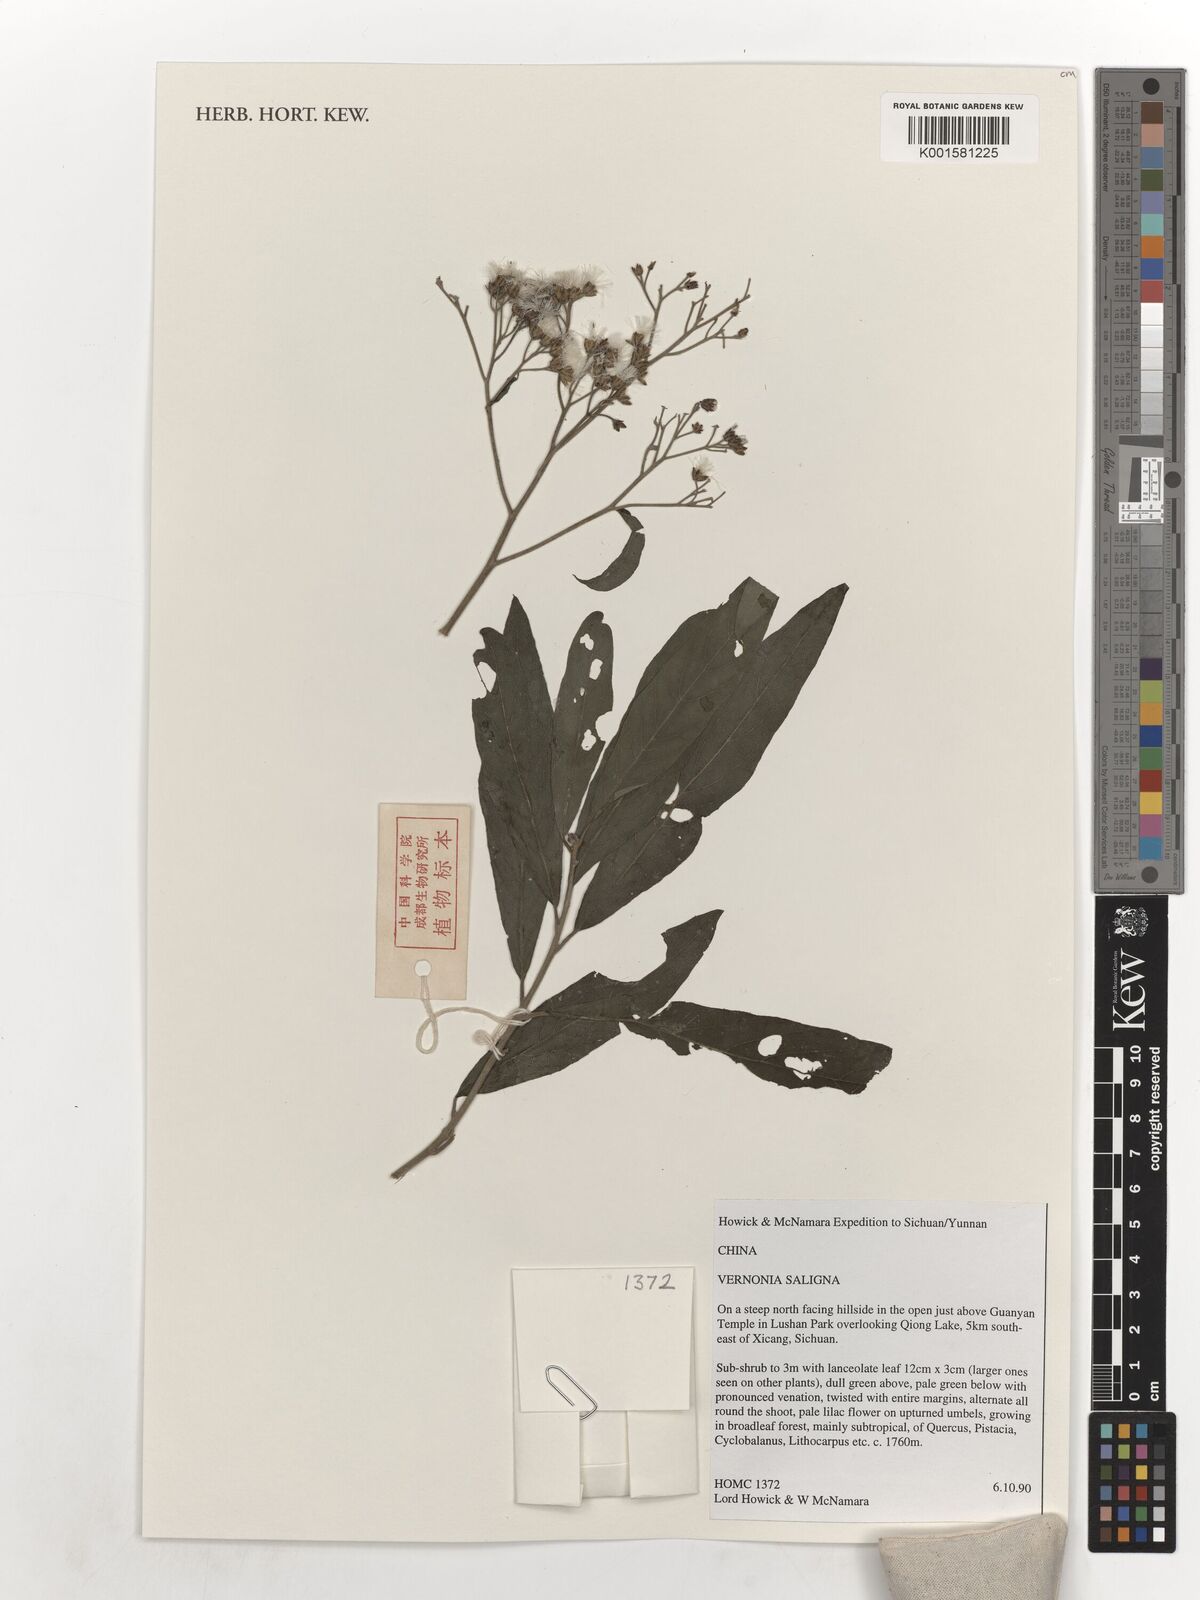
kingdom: Plantae
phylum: Tracheophyta
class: Magnoliopsida
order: Asterales
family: Asteraceae
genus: Acilepis
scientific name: Acilepis saligna
